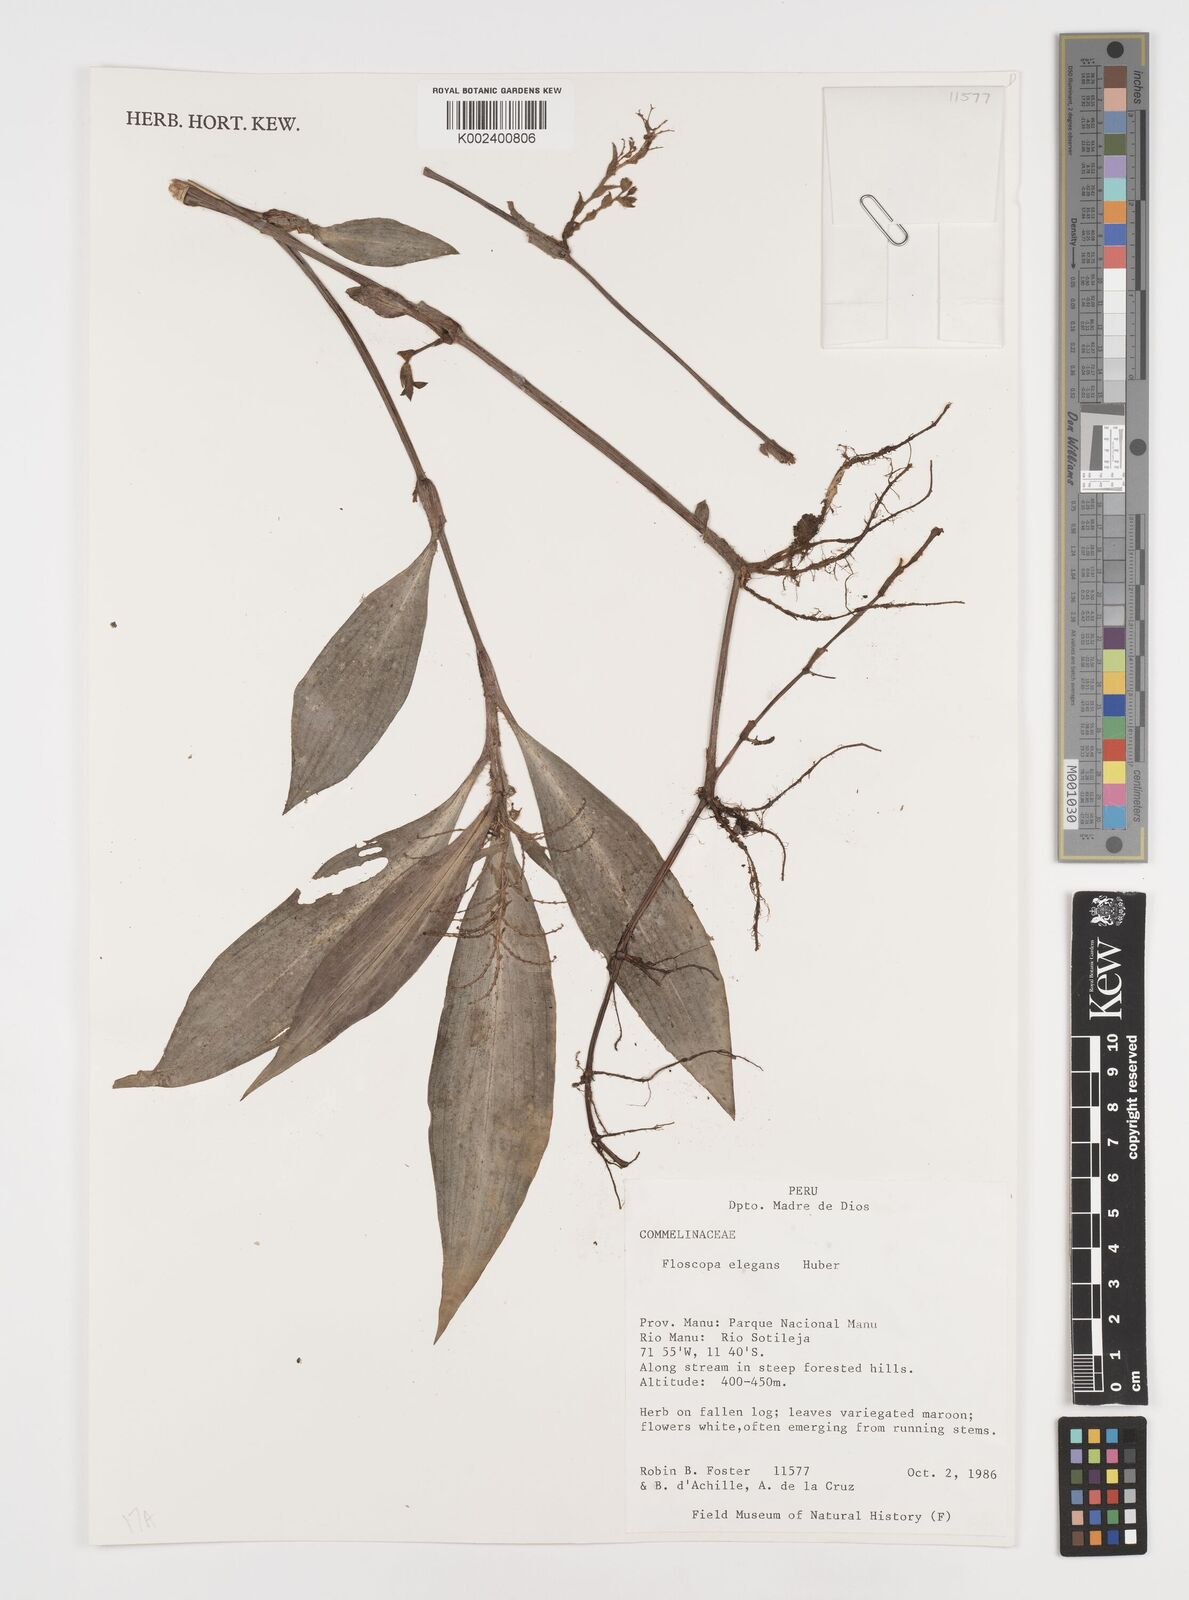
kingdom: Plantae
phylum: Tracheophyta
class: Liliopsida
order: Commelinales
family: Commelinaceae
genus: Floscopa
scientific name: Floscopa elegans
